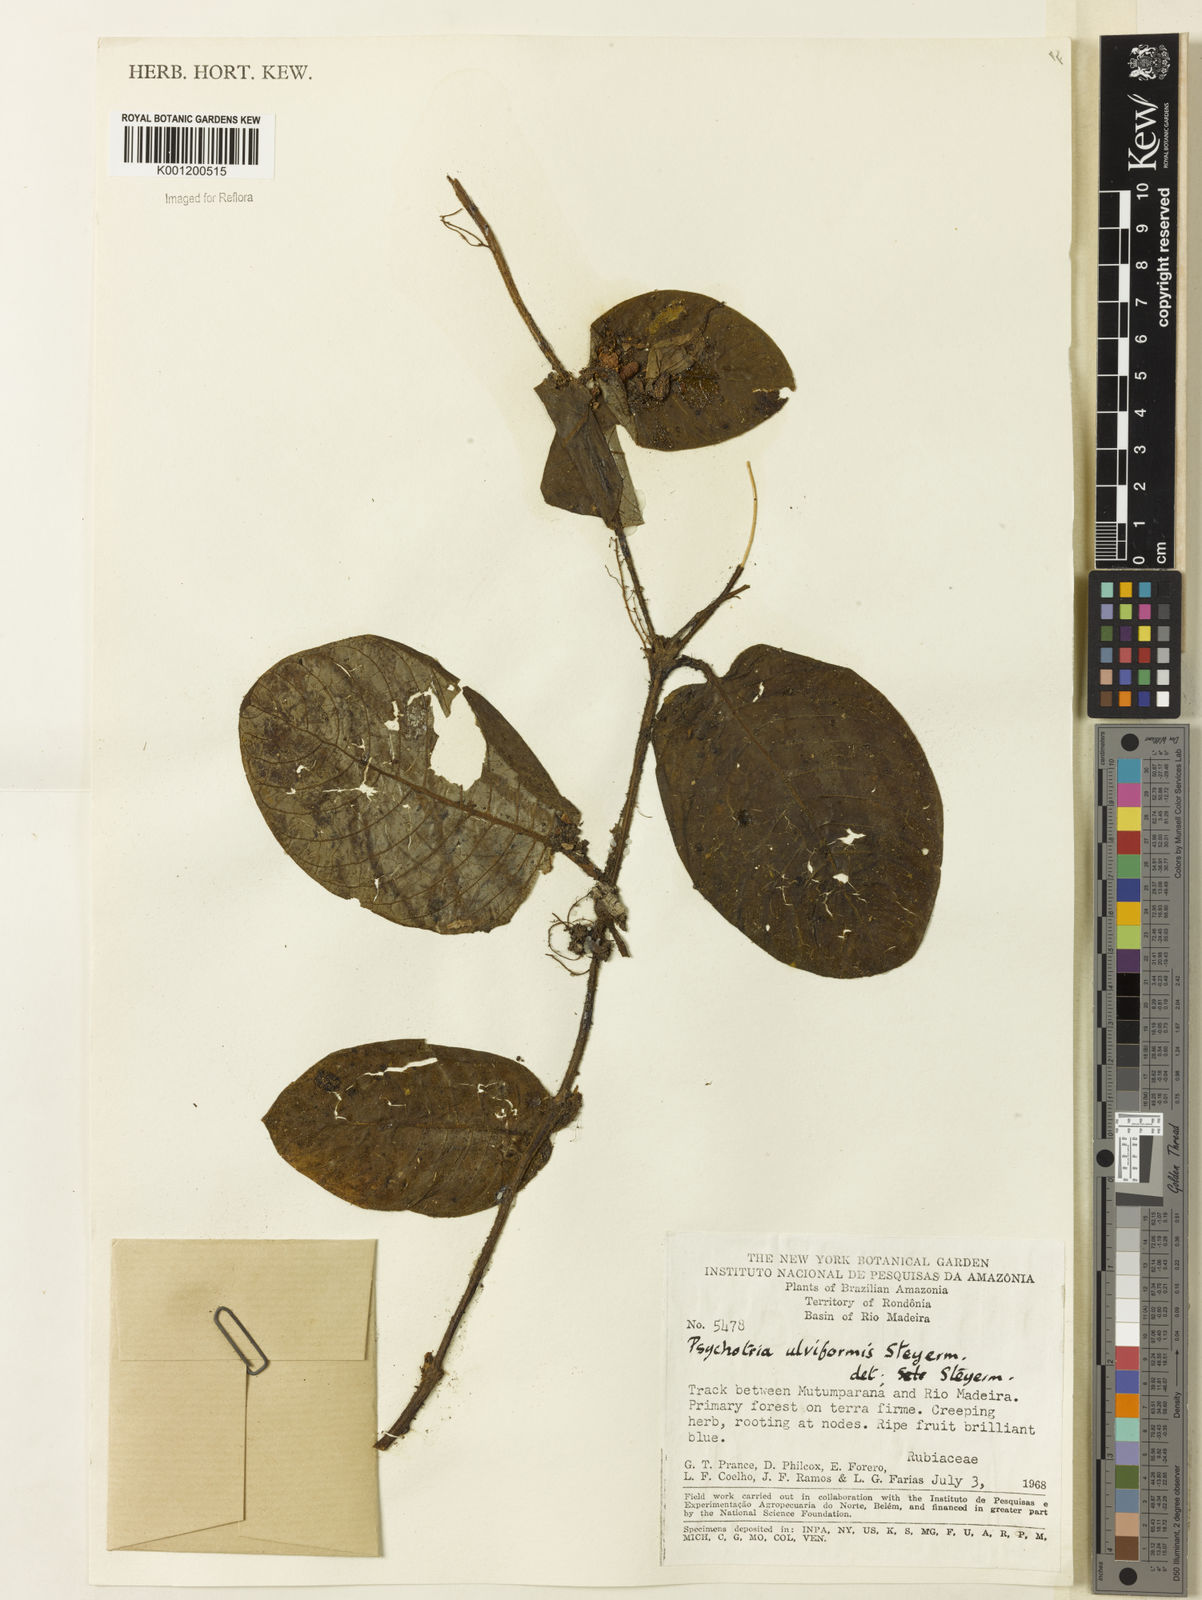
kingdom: Plantae
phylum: Tracheophyta
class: Magnoliopsida
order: Gentianales
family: Rubiaceae
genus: Palicourea
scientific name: Palicourea alba
